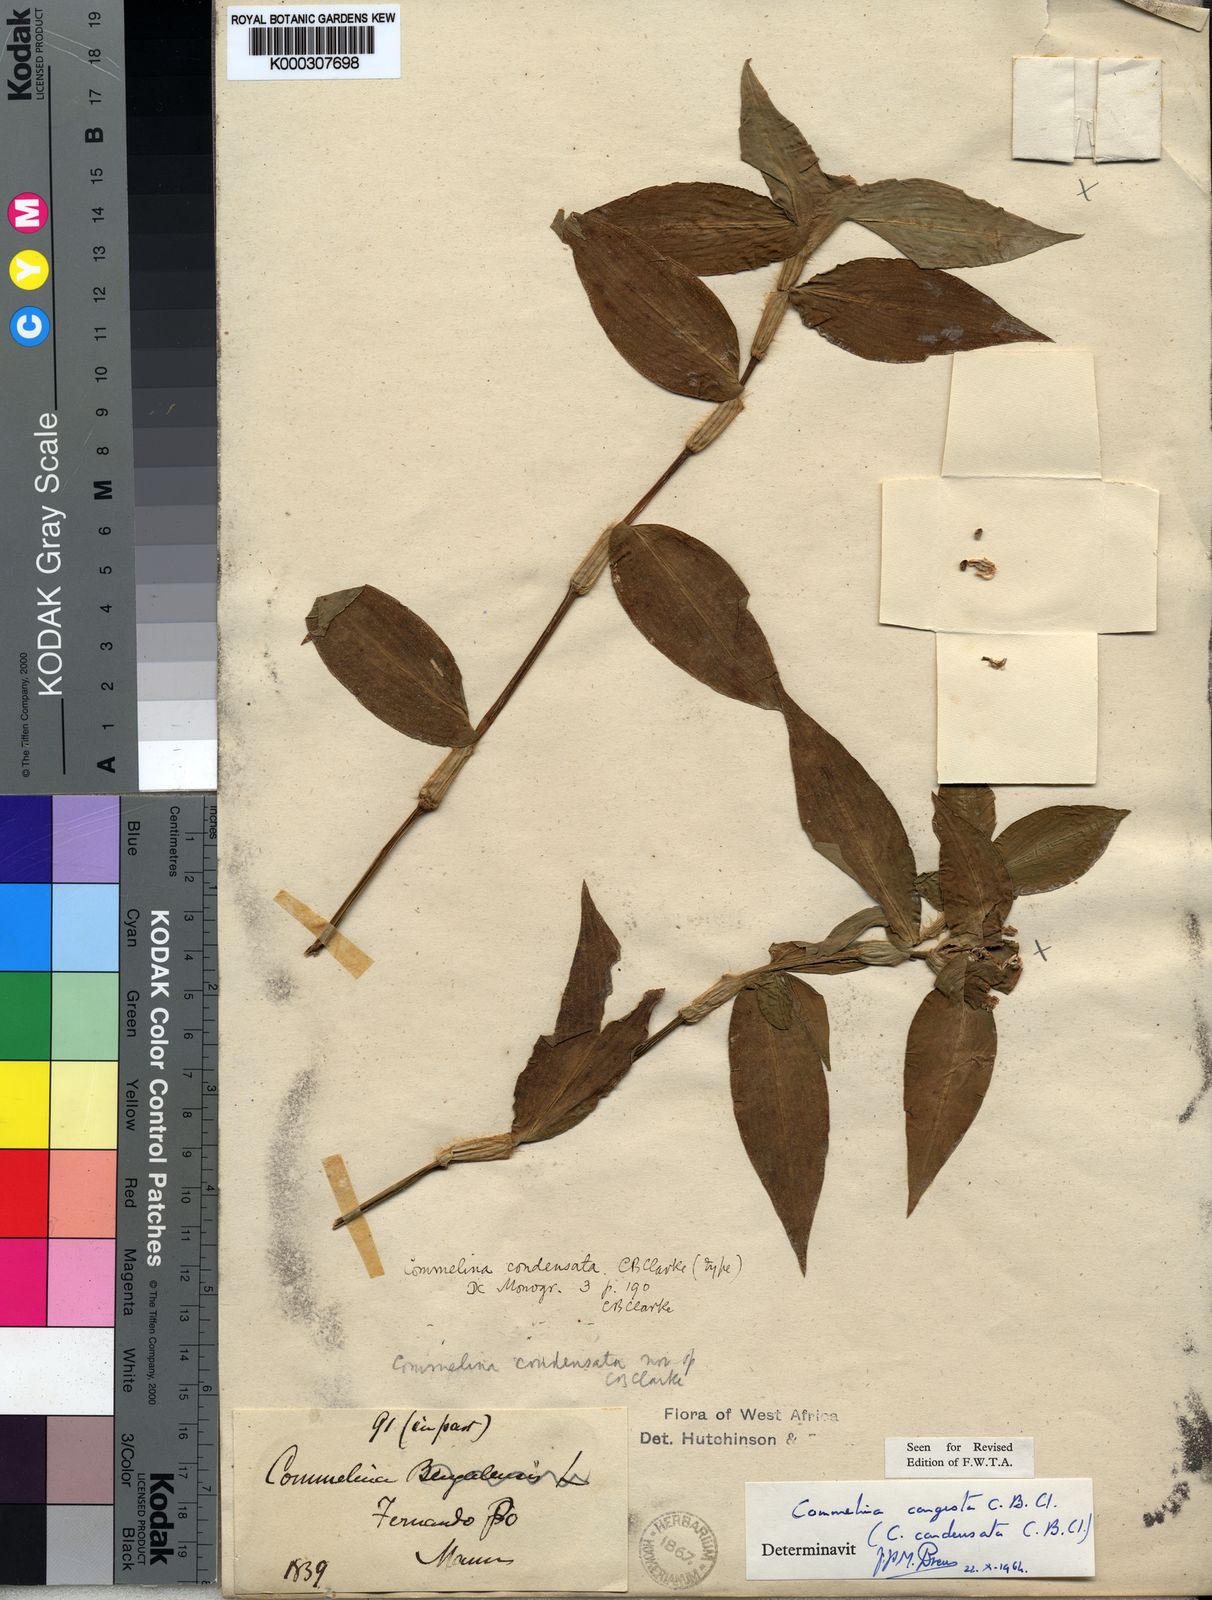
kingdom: Plantae
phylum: Tracheophyta
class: Liliopsida
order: Commelinales
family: Commelinaceae
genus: Commelina
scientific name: Commelina congesta
